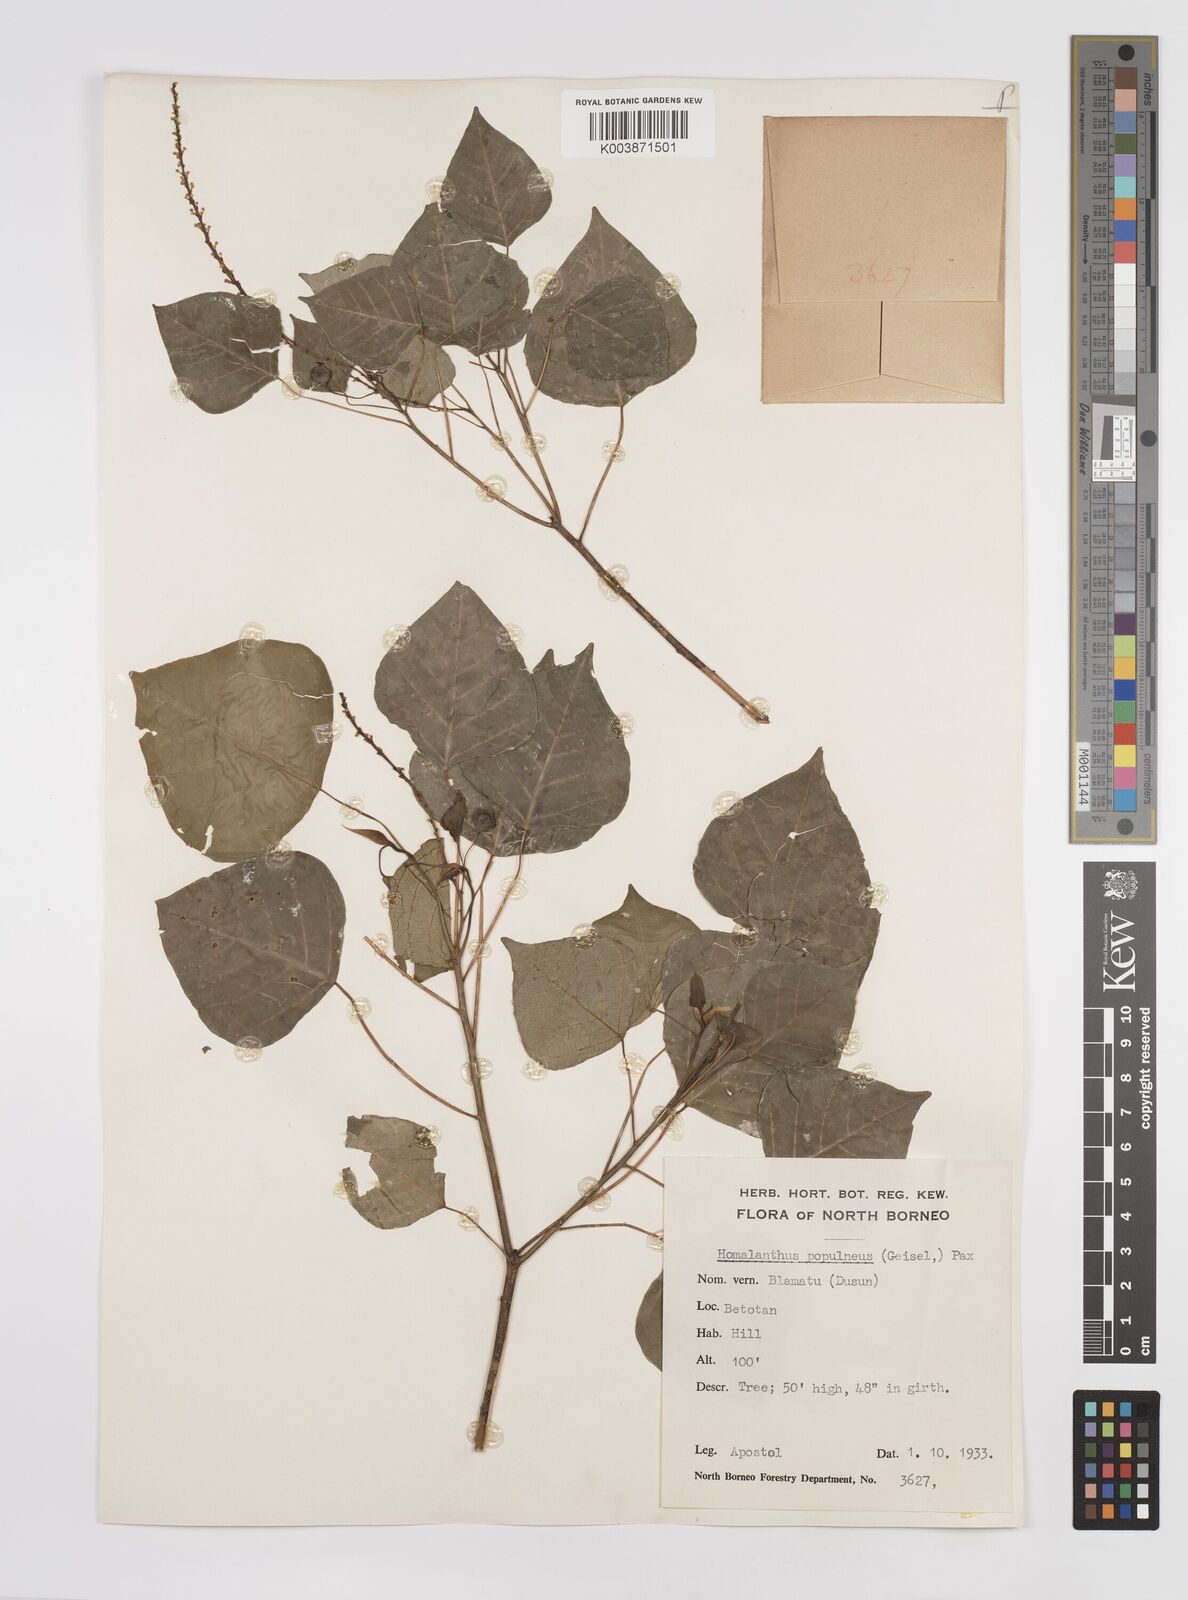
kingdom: Plantae
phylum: Tracheophyta
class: Magnoliopsida
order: Malpighiales
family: Euphorbiaceae
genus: Homalanthus
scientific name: Homalanthus populneus
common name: Spurge
